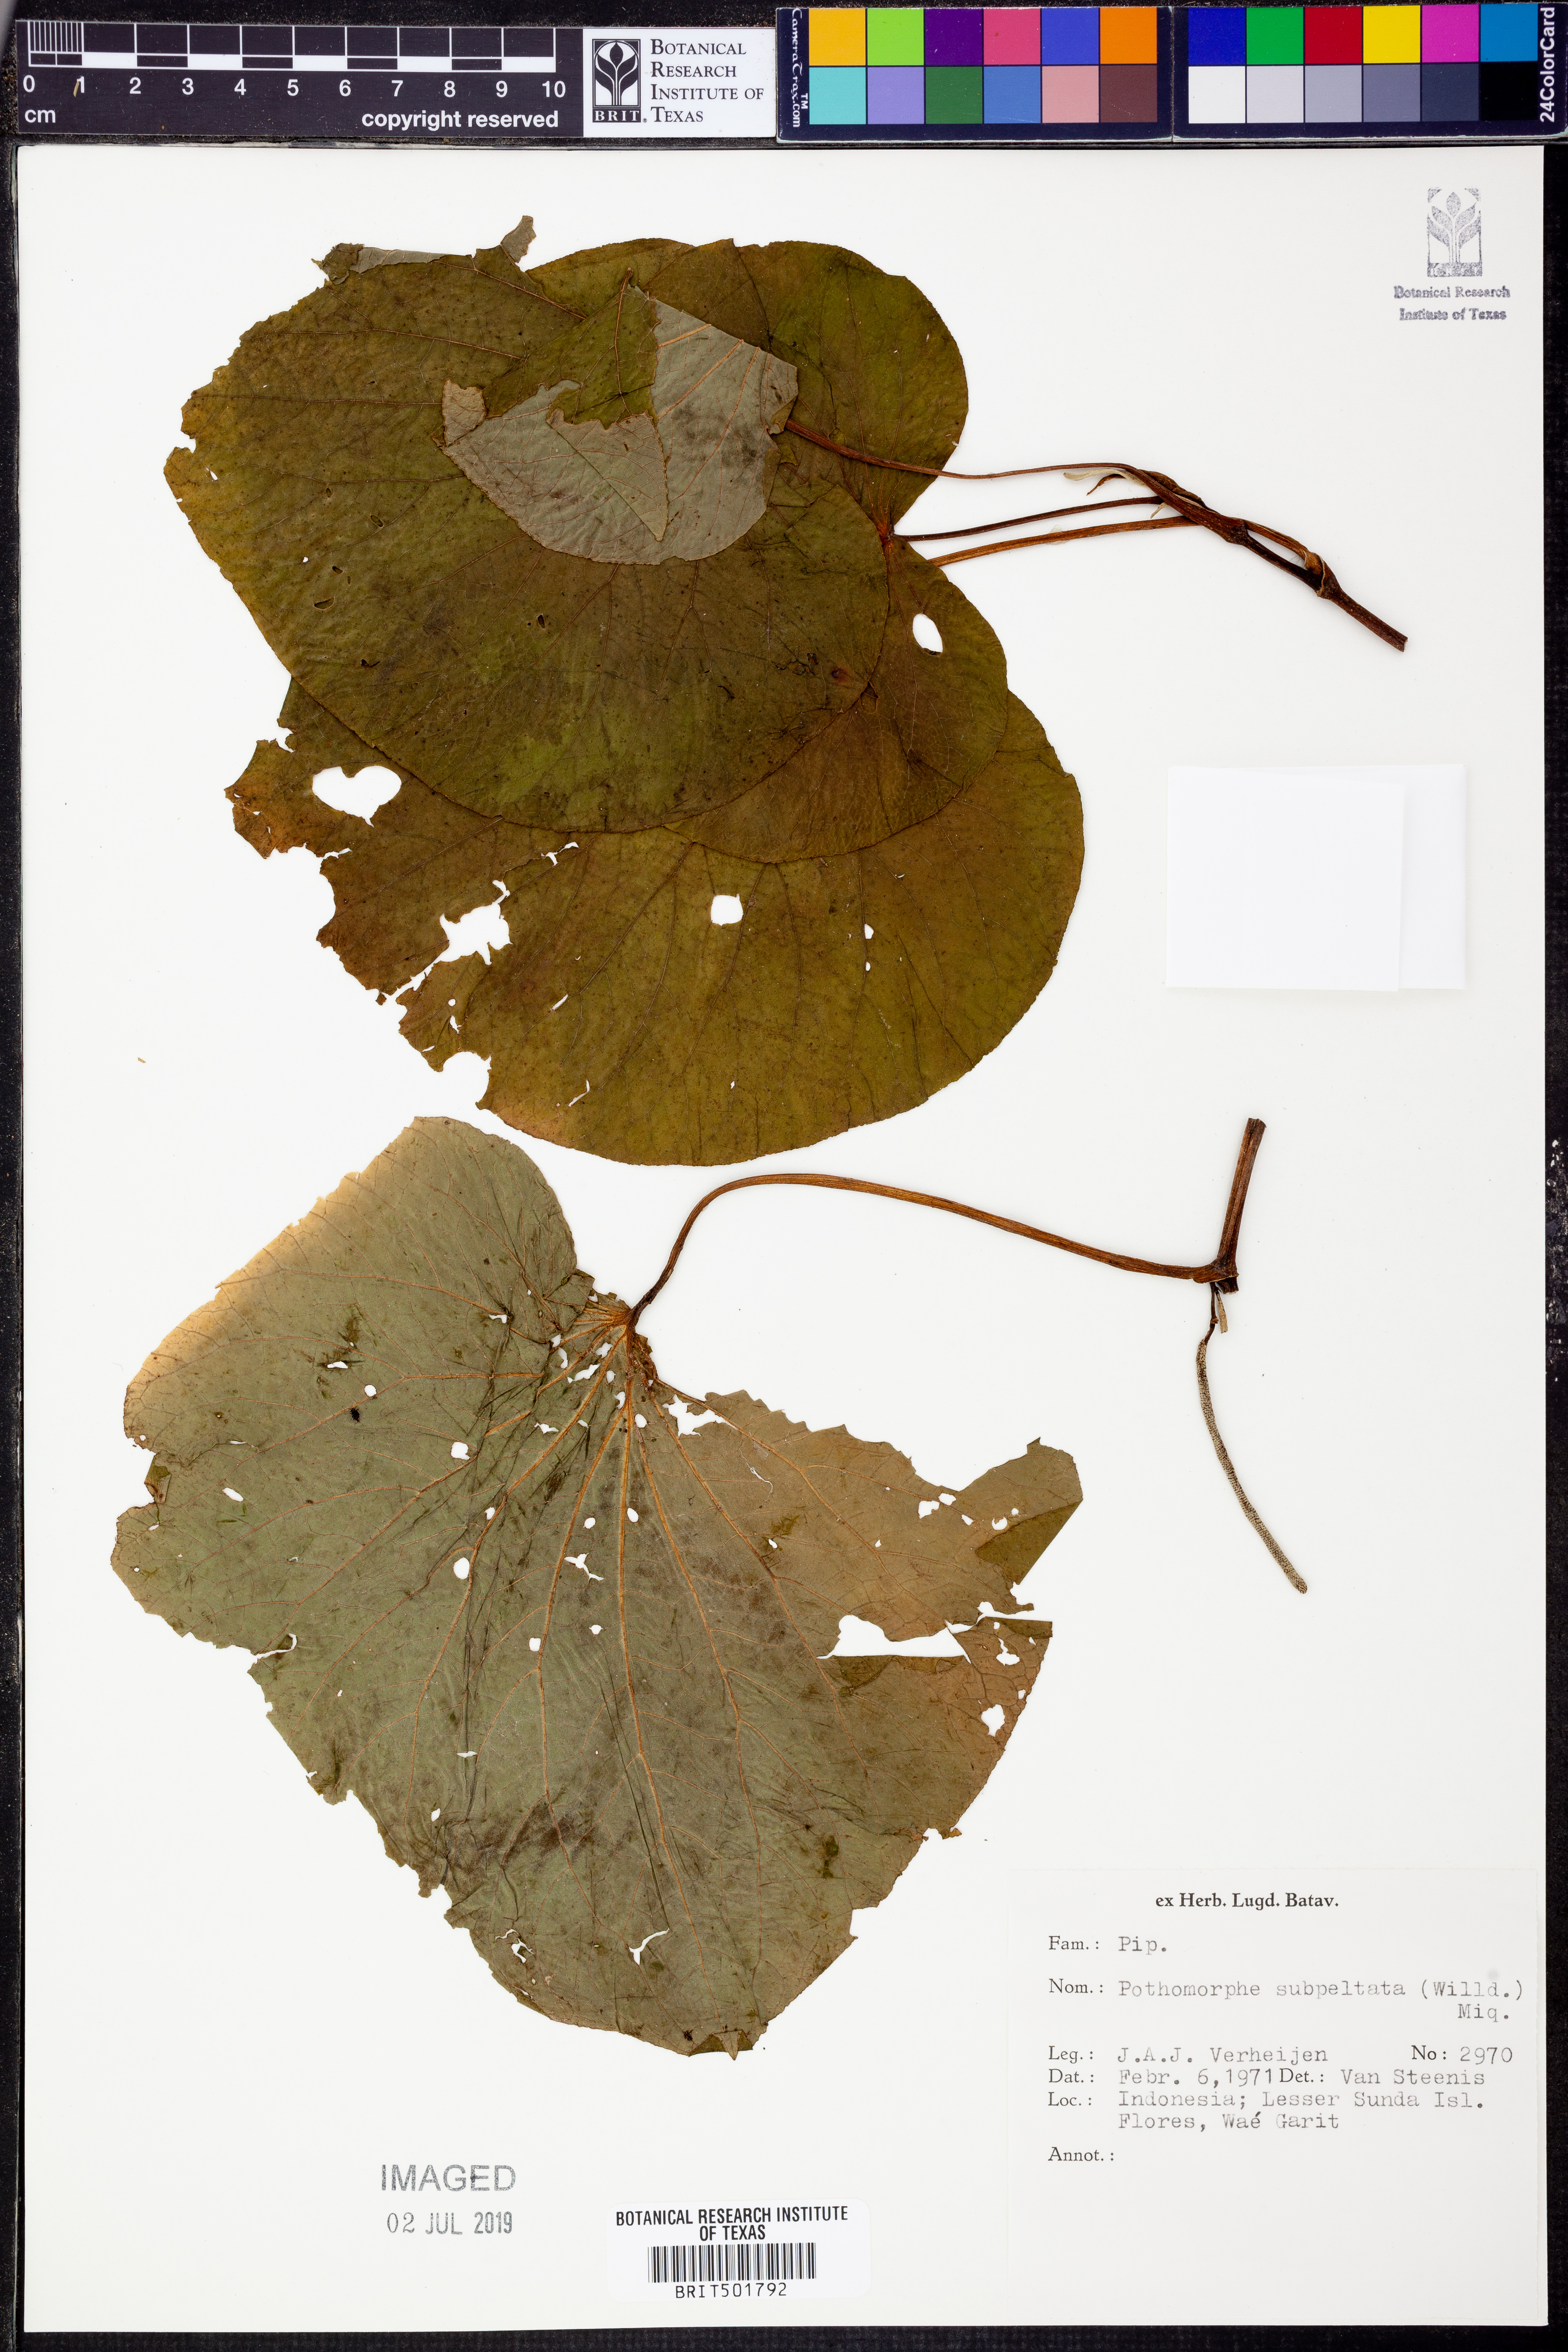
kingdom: Plantae
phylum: Tracheophyta
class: Magnoliopsida
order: Piperales
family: Piperaceae
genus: Piper
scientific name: Piper umbellatum
